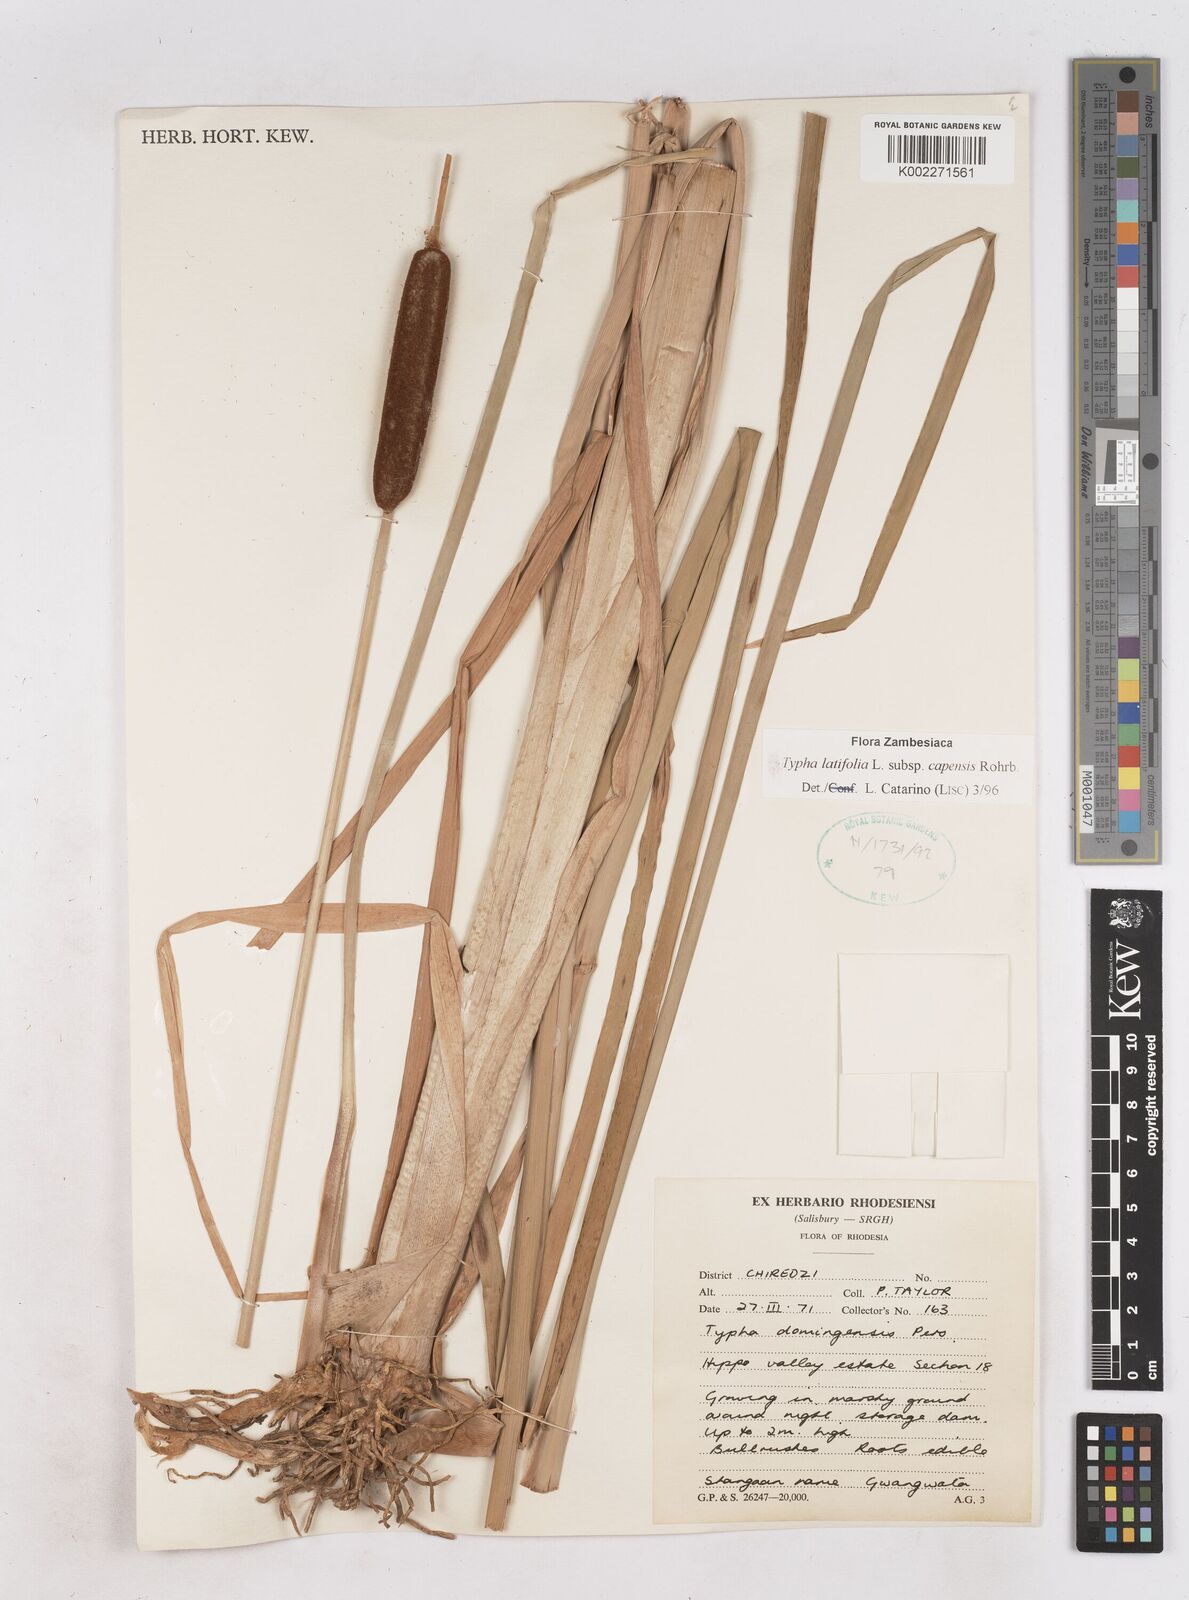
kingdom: Plantae
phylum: Tracheophyta
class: Liliopsida
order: Poales
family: Typhaceae
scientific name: Typhaceae
